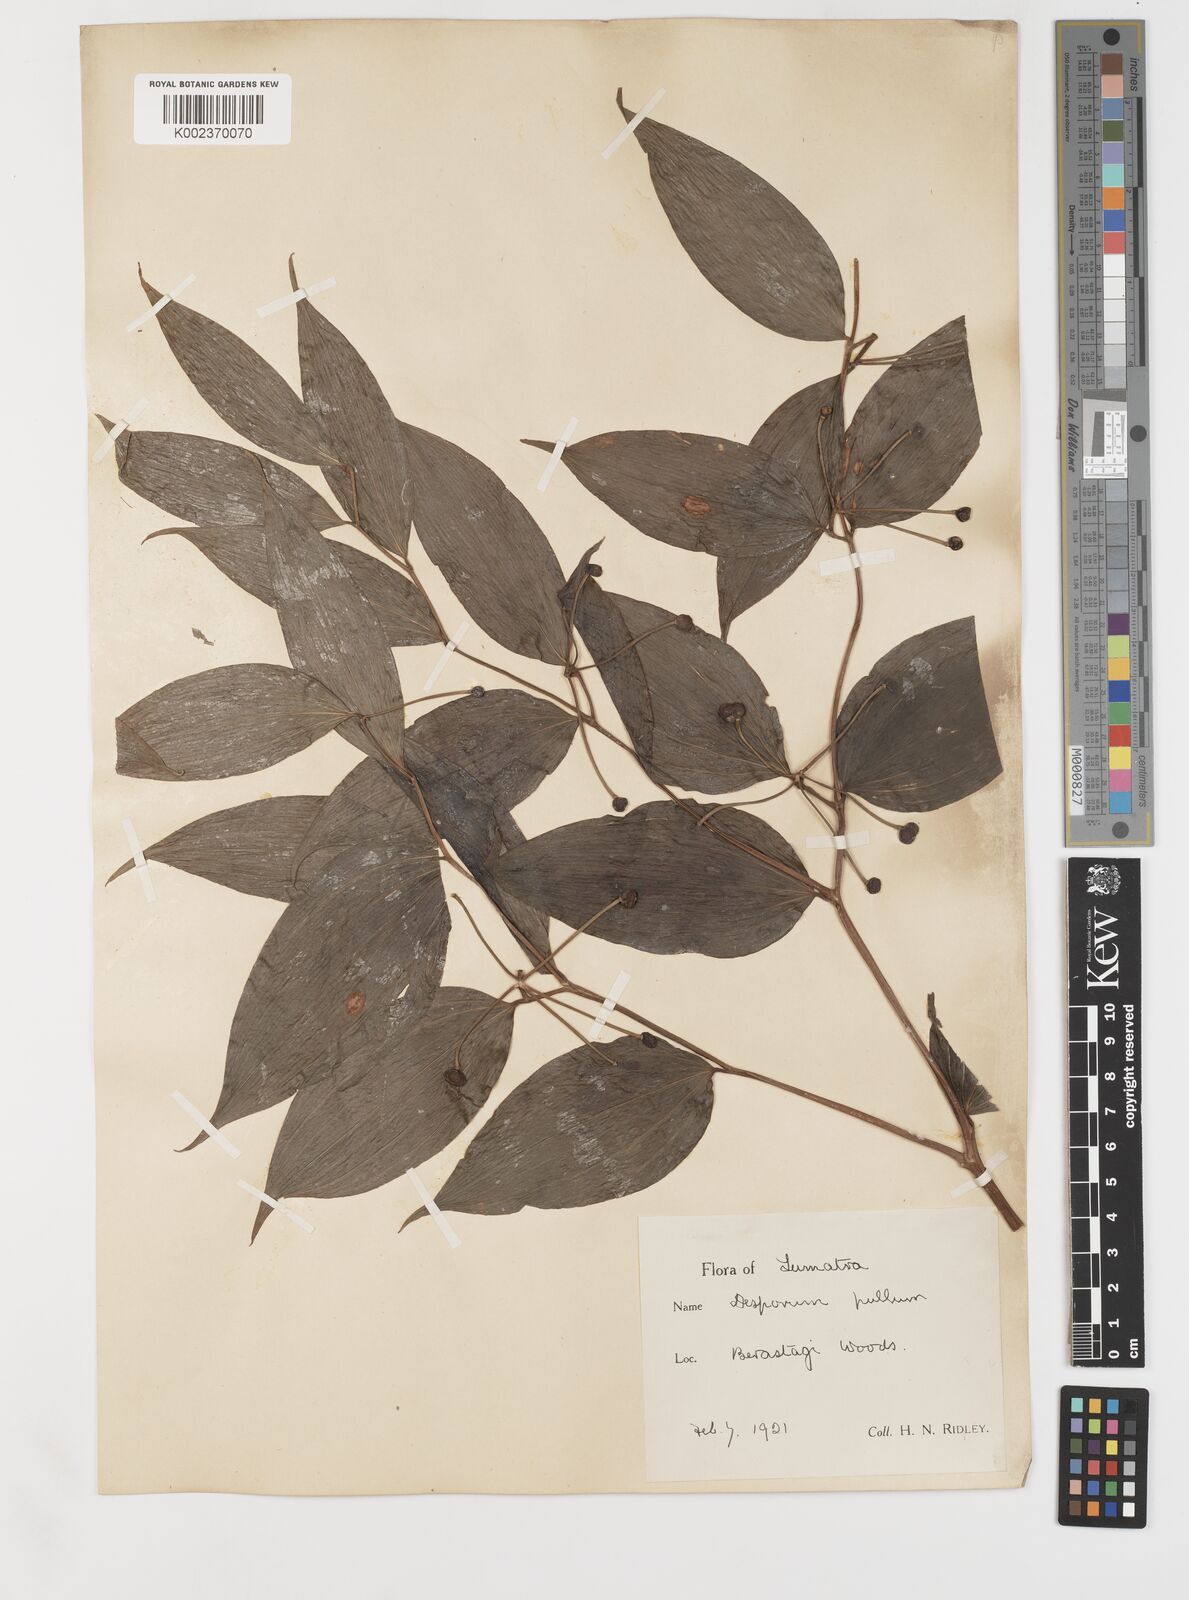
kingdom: Plantae
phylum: Tracheophyta
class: Liliopsida
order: Liliales
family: Colchicaceae
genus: Disporum
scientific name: Disporum cantoniense
